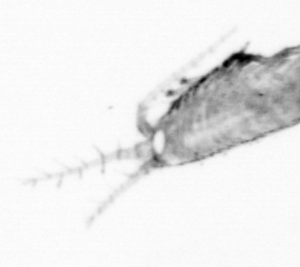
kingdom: Animalia
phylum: Arthropoda
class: Copepoda
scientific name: Copepoda
